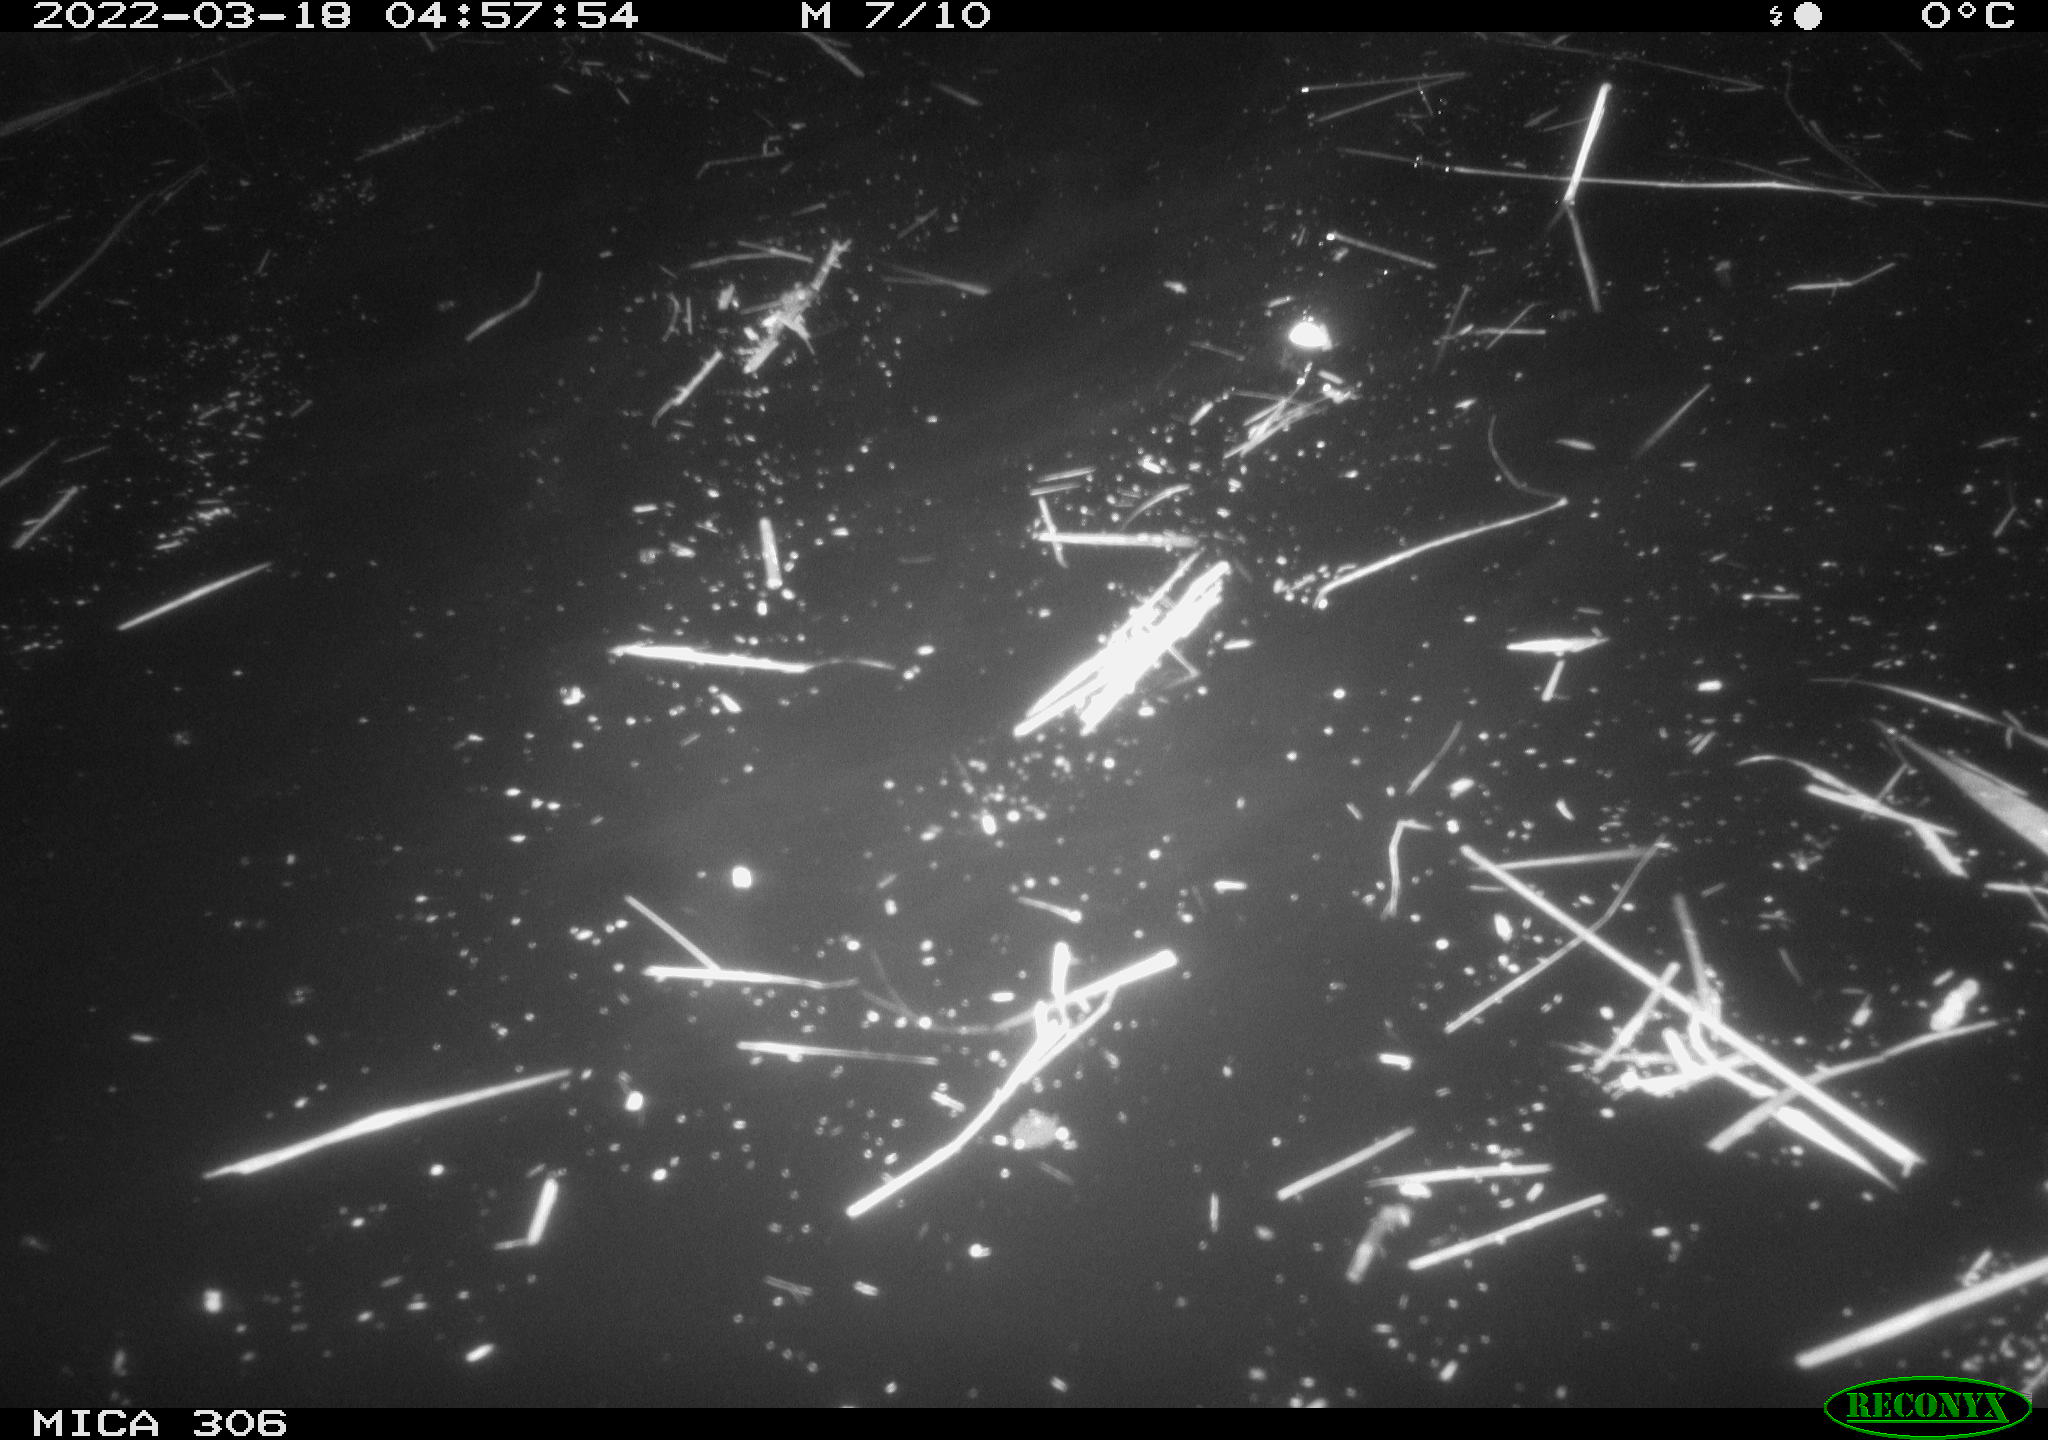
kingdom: Animalia
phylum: Chordata
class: Aves
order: Anseriformes
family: Anatidae
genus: Anas
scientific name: Anas platyrhynchos
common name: Mallard
